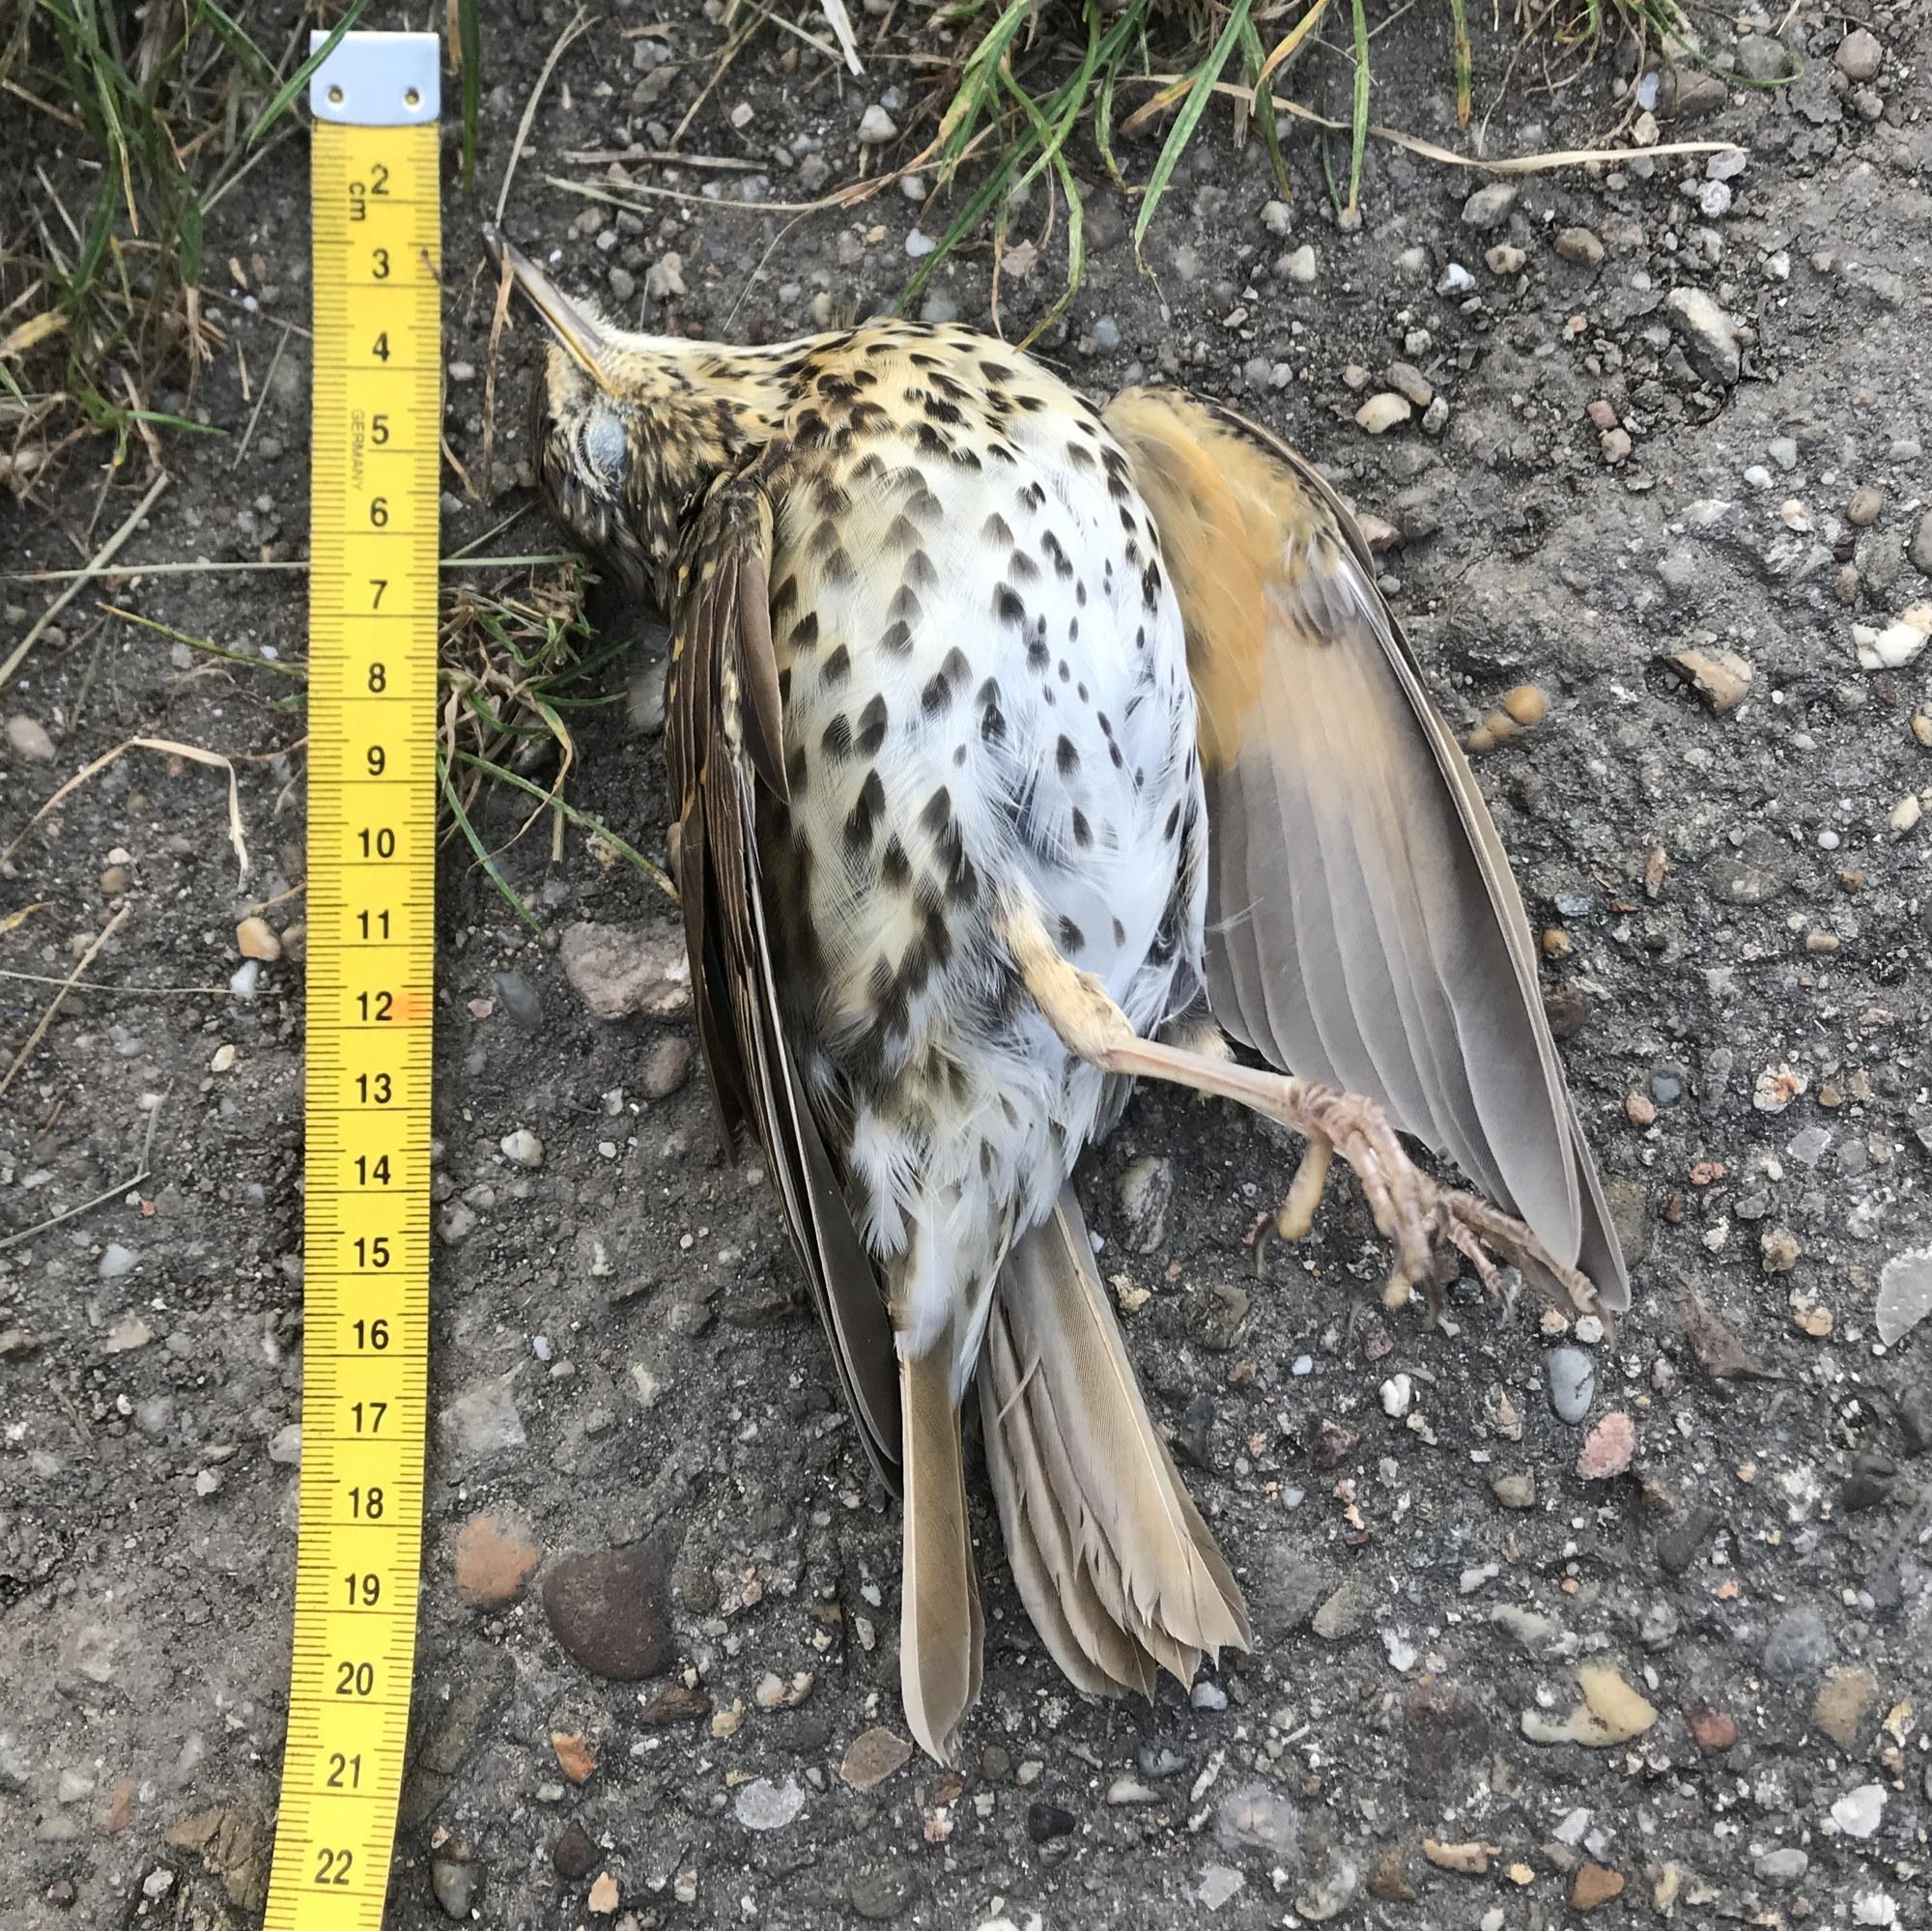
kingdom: Animalia
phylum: Chordata
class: Aves
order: Passeriformes
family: Turdidae
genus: Turdus
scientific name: Turdus philomelos
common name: Song thrush
